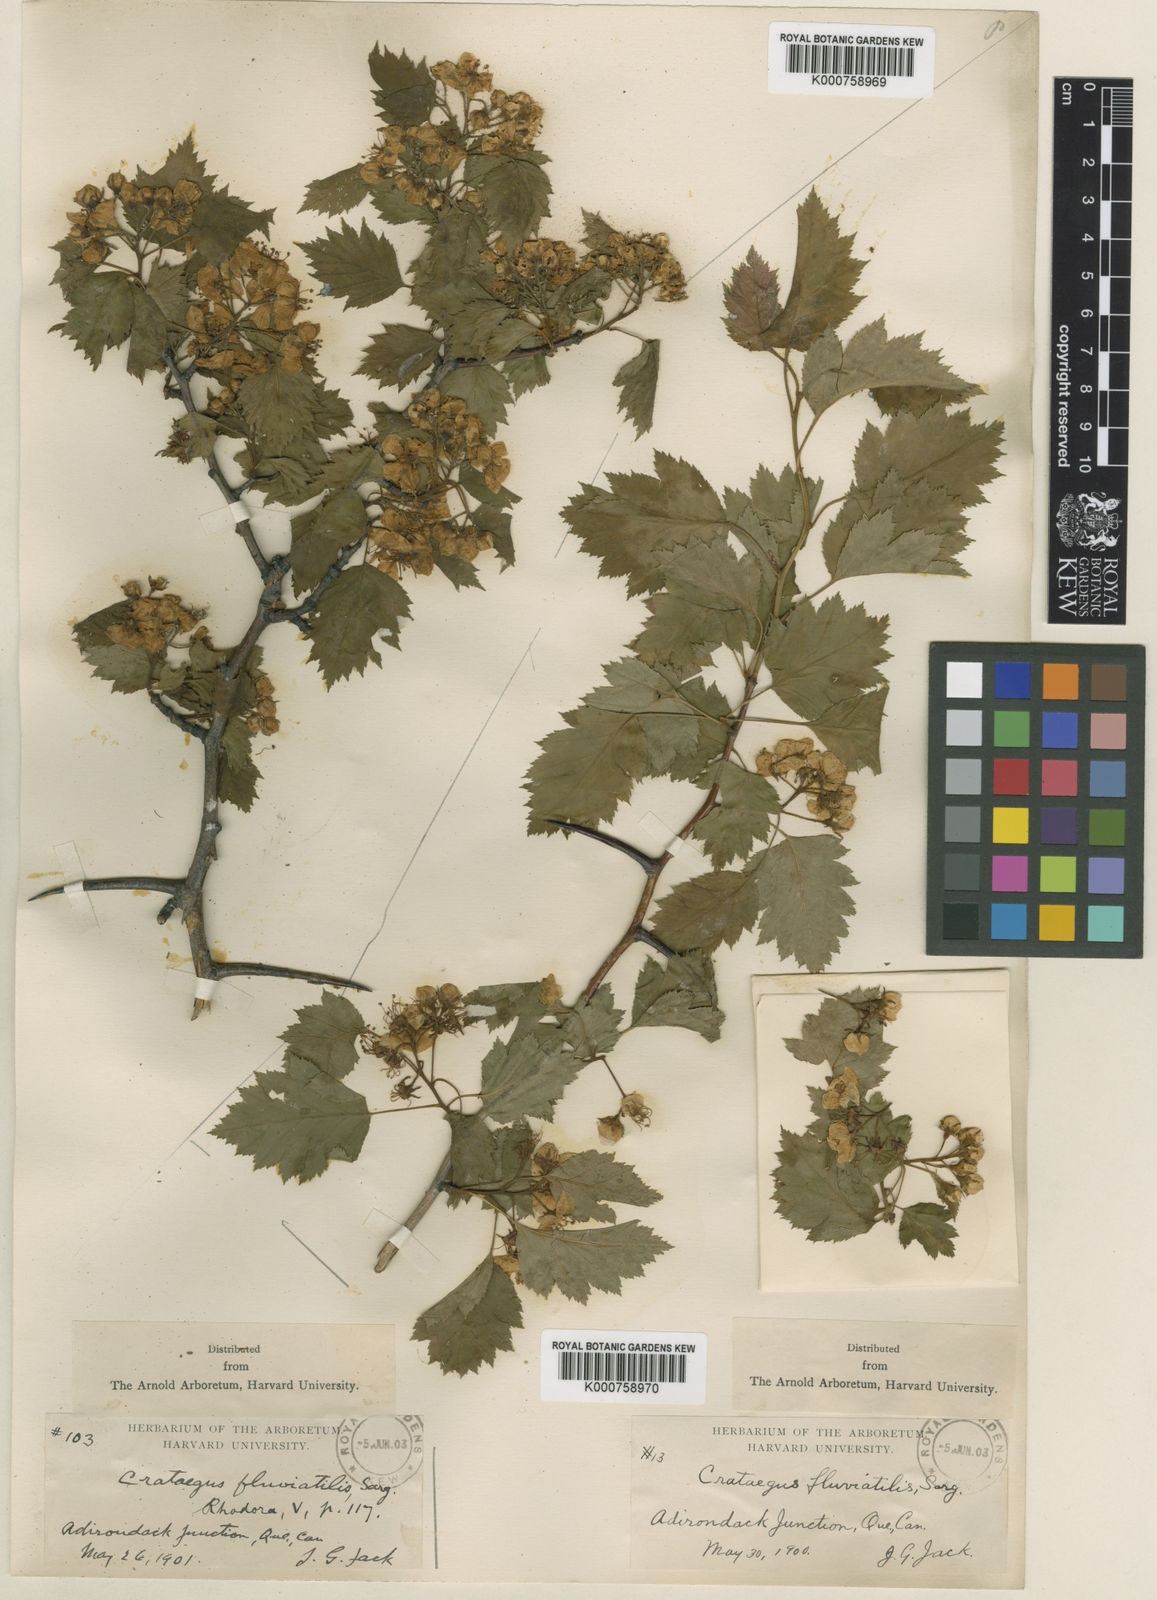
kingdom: Plantae
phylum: Tracheophyta
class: Magnoliopsida
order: Rosales
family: Rosaceae
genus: Crataegus
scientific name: Crataegus fluviatilis
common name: Fort sheridan hawthorn
